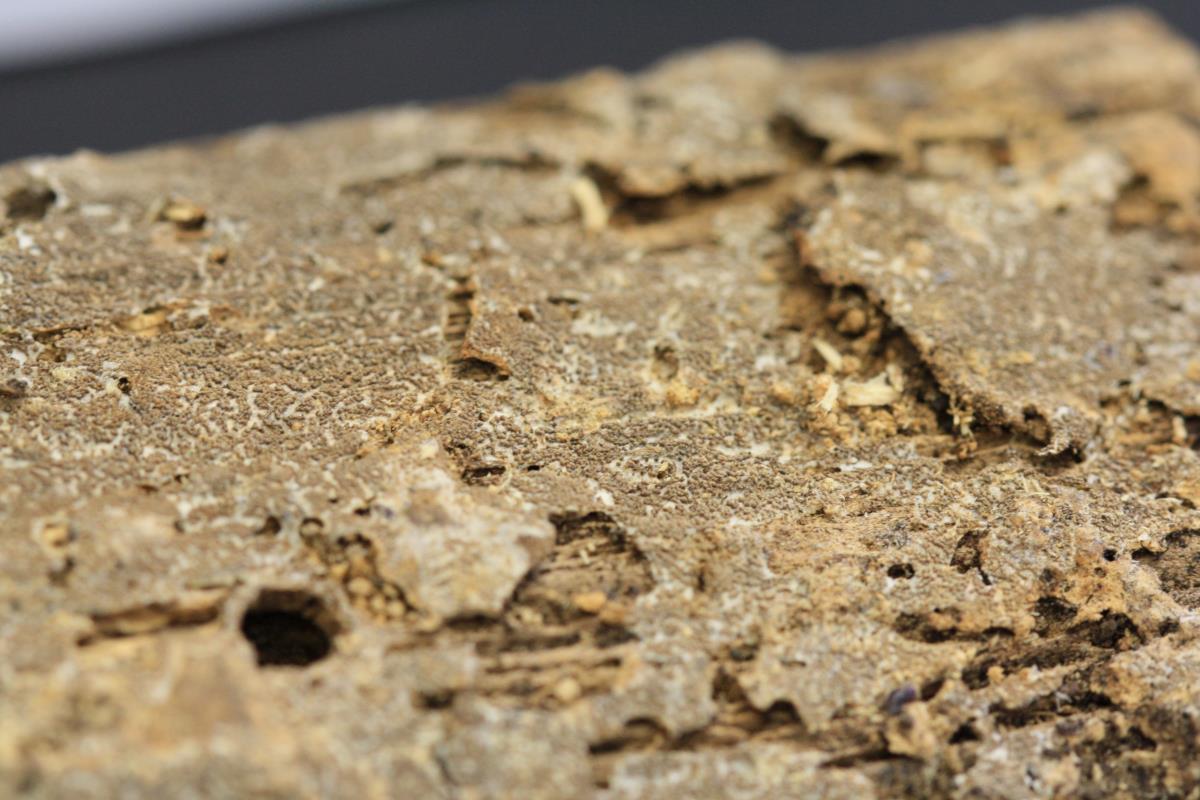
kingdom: Fungi
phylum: Basidiomycota
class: Agaricomycetes
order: Agaricales
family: Pleurotaceae
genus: Resupinatus
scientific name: Resupinatus poriaeformis
